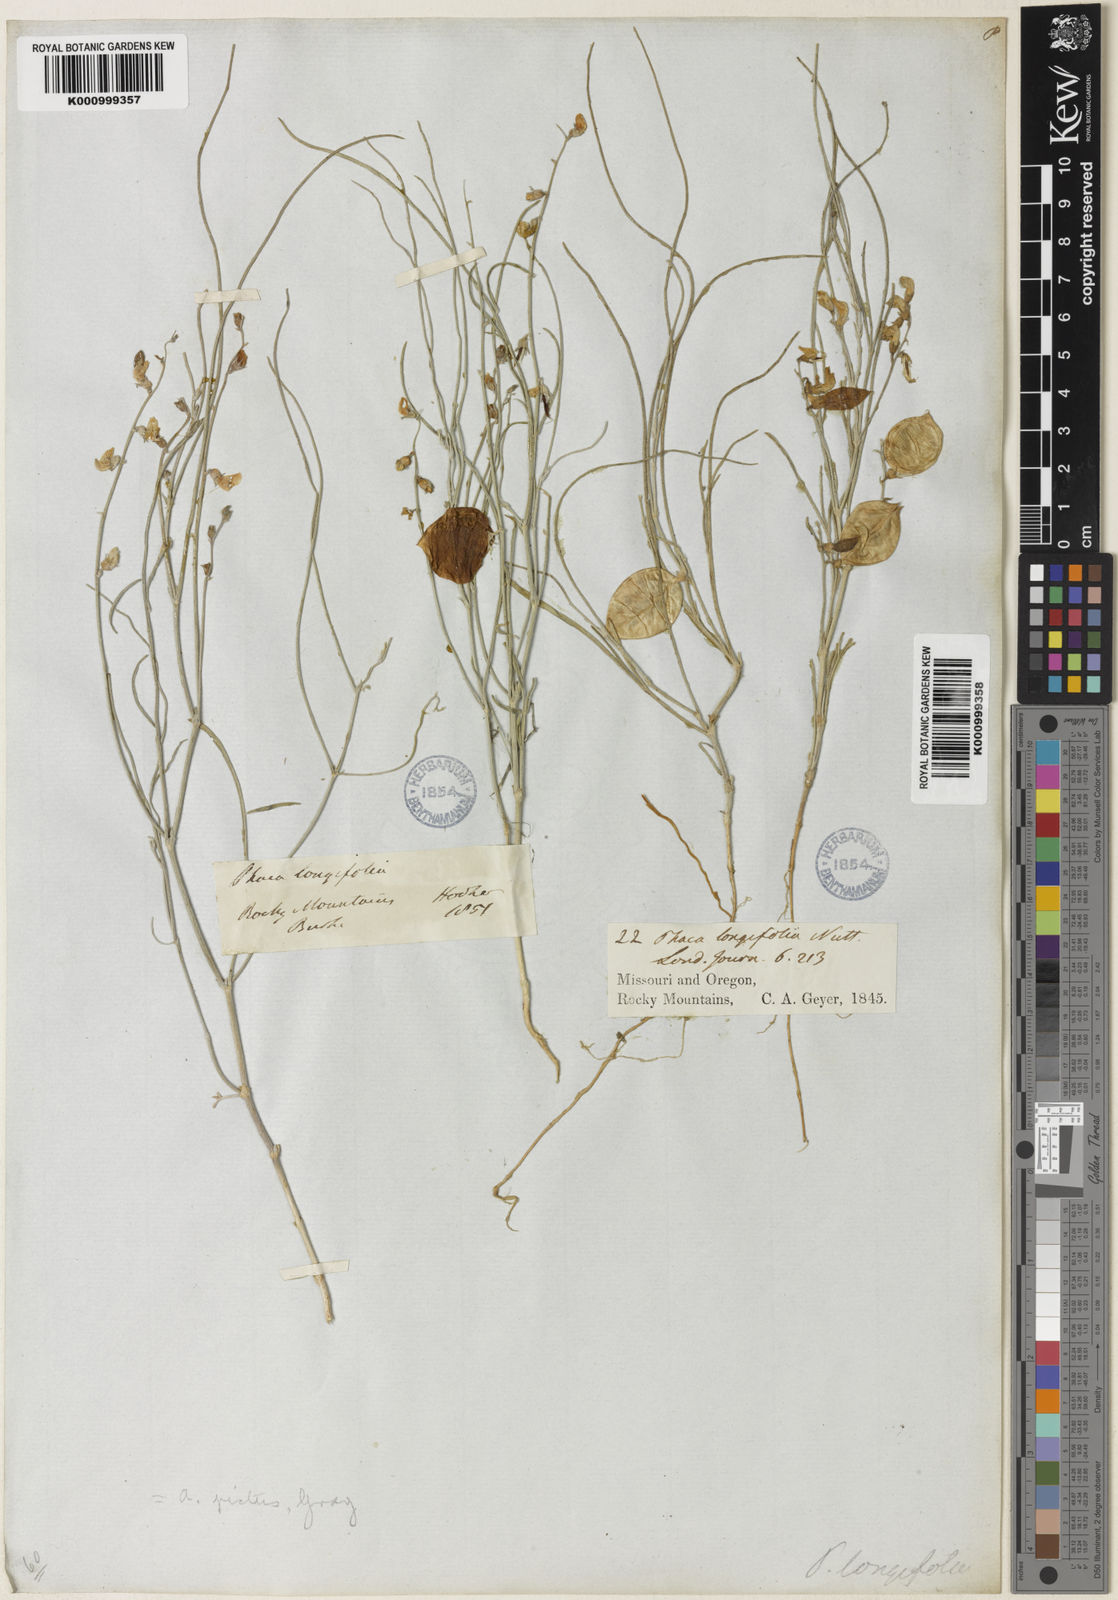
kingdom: Plantae
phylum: Tracheophyta
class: Magnoliopsida
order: Fabales
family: Fabaceae
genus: Astragalus
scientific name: Astragalus ceramicus
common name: Painted milk-vetch
